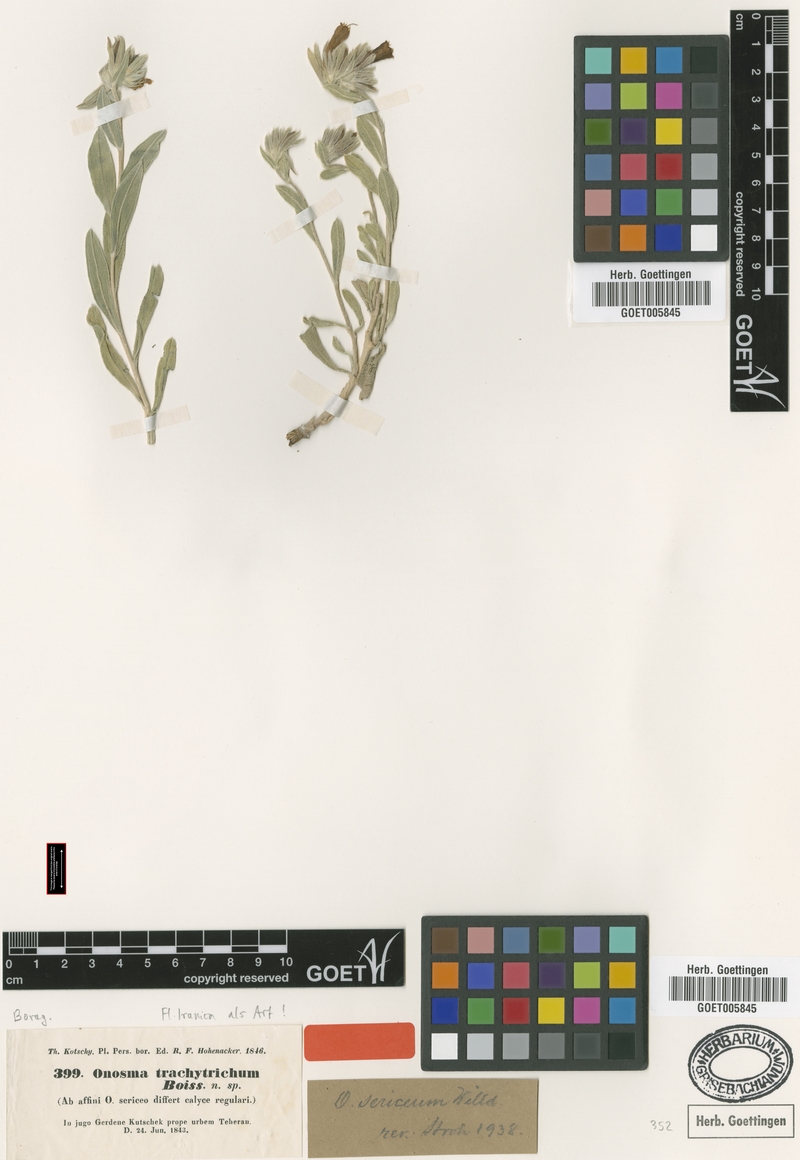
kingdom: Plantae
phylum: Tracheophyta
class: Magnoliopsida
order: Boraginales
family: Boraginaceae
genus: Onosma
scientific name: Onosma trachytricha
